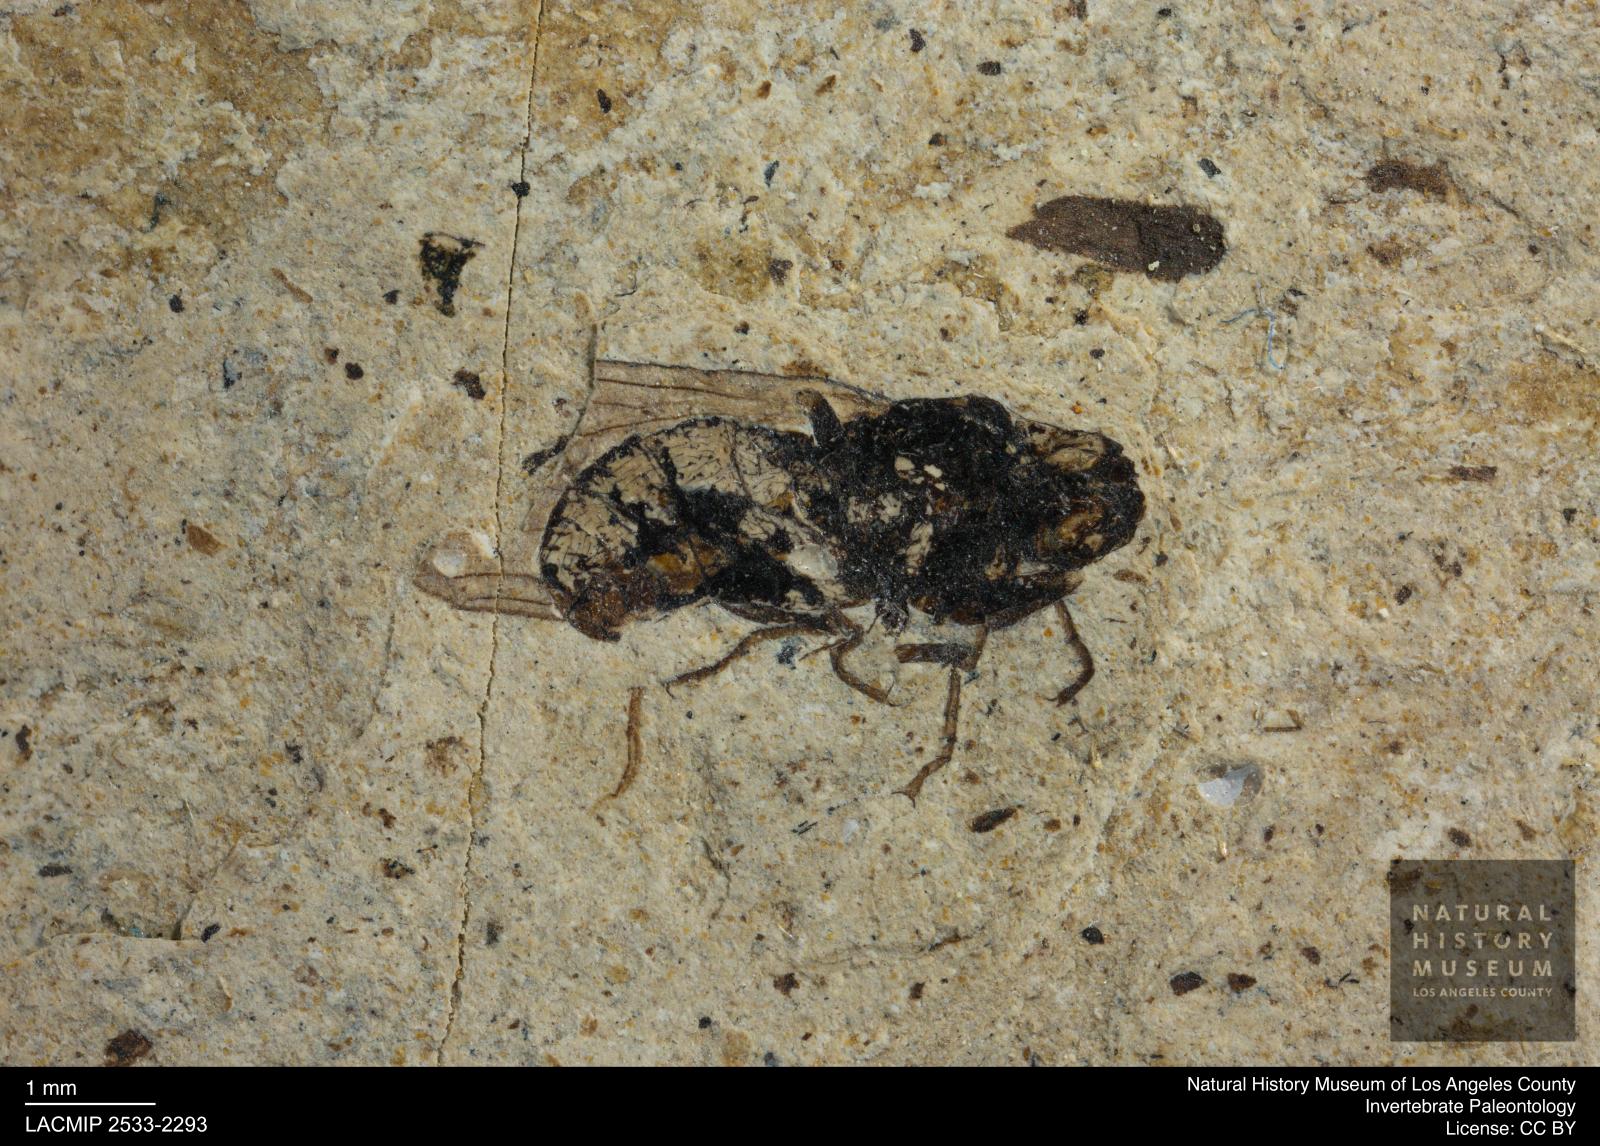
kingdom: Animalia
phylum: Arthropoda
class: Insecta
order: Diptera
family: Heleomyzidae
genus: Heleomyza
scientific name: Heleomyza Leria bauckhorni
